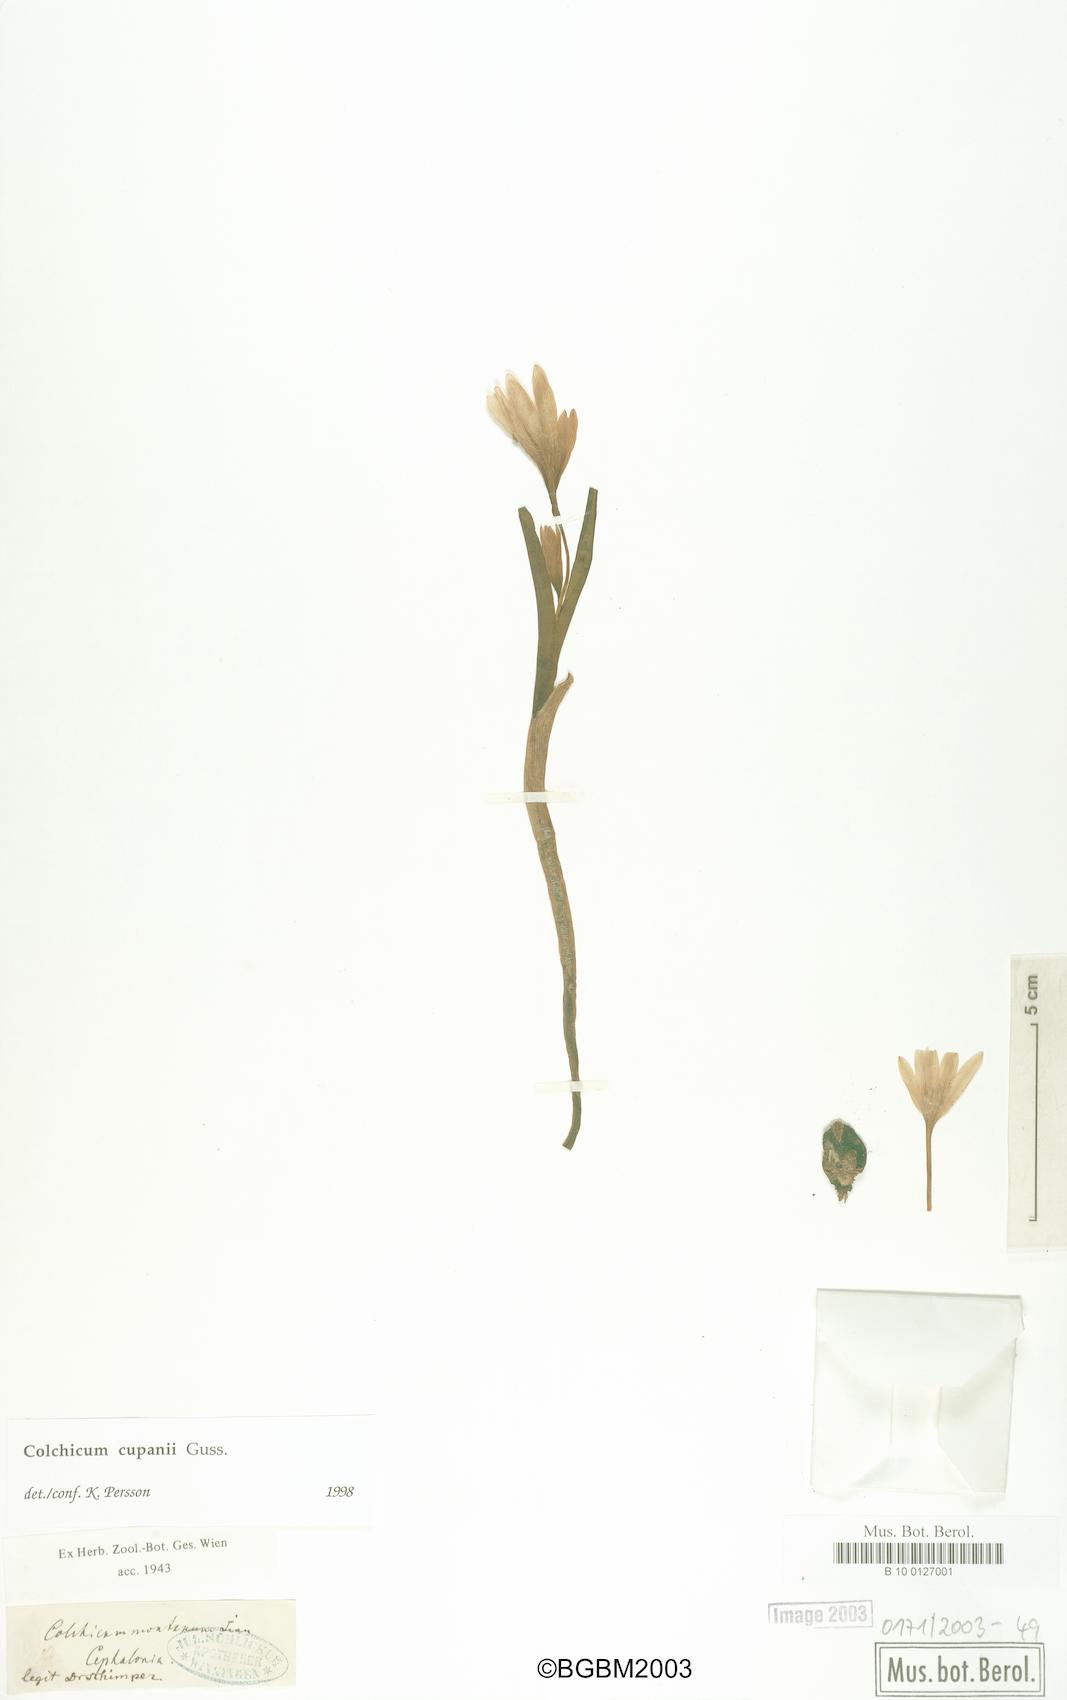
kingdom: Plantae
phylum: Tracheophyta
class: Liliopsida
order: Liliales
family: Colchicaceae
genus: Colchicum
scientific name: Colchicum cupanii
